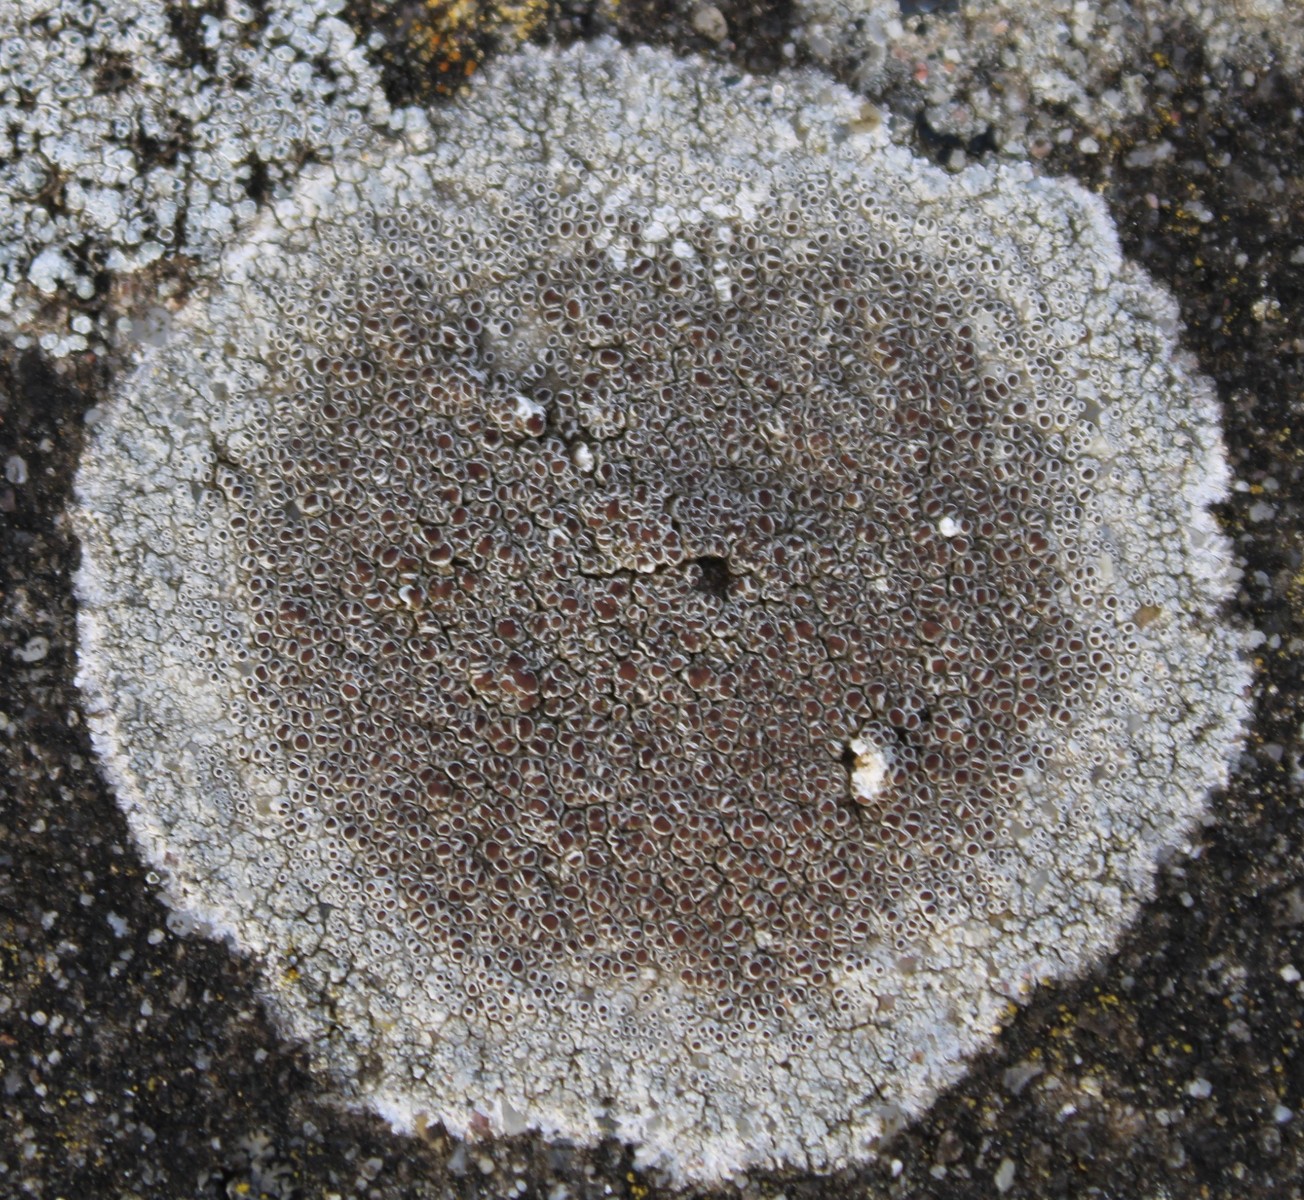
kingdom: Fungi
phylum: Ascomycota
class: Lecanoromycetes
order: Lecanorales
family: Lecanoraceae
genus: Lecanora
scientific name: Lecanora campestris
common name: mur-kantskivelav
